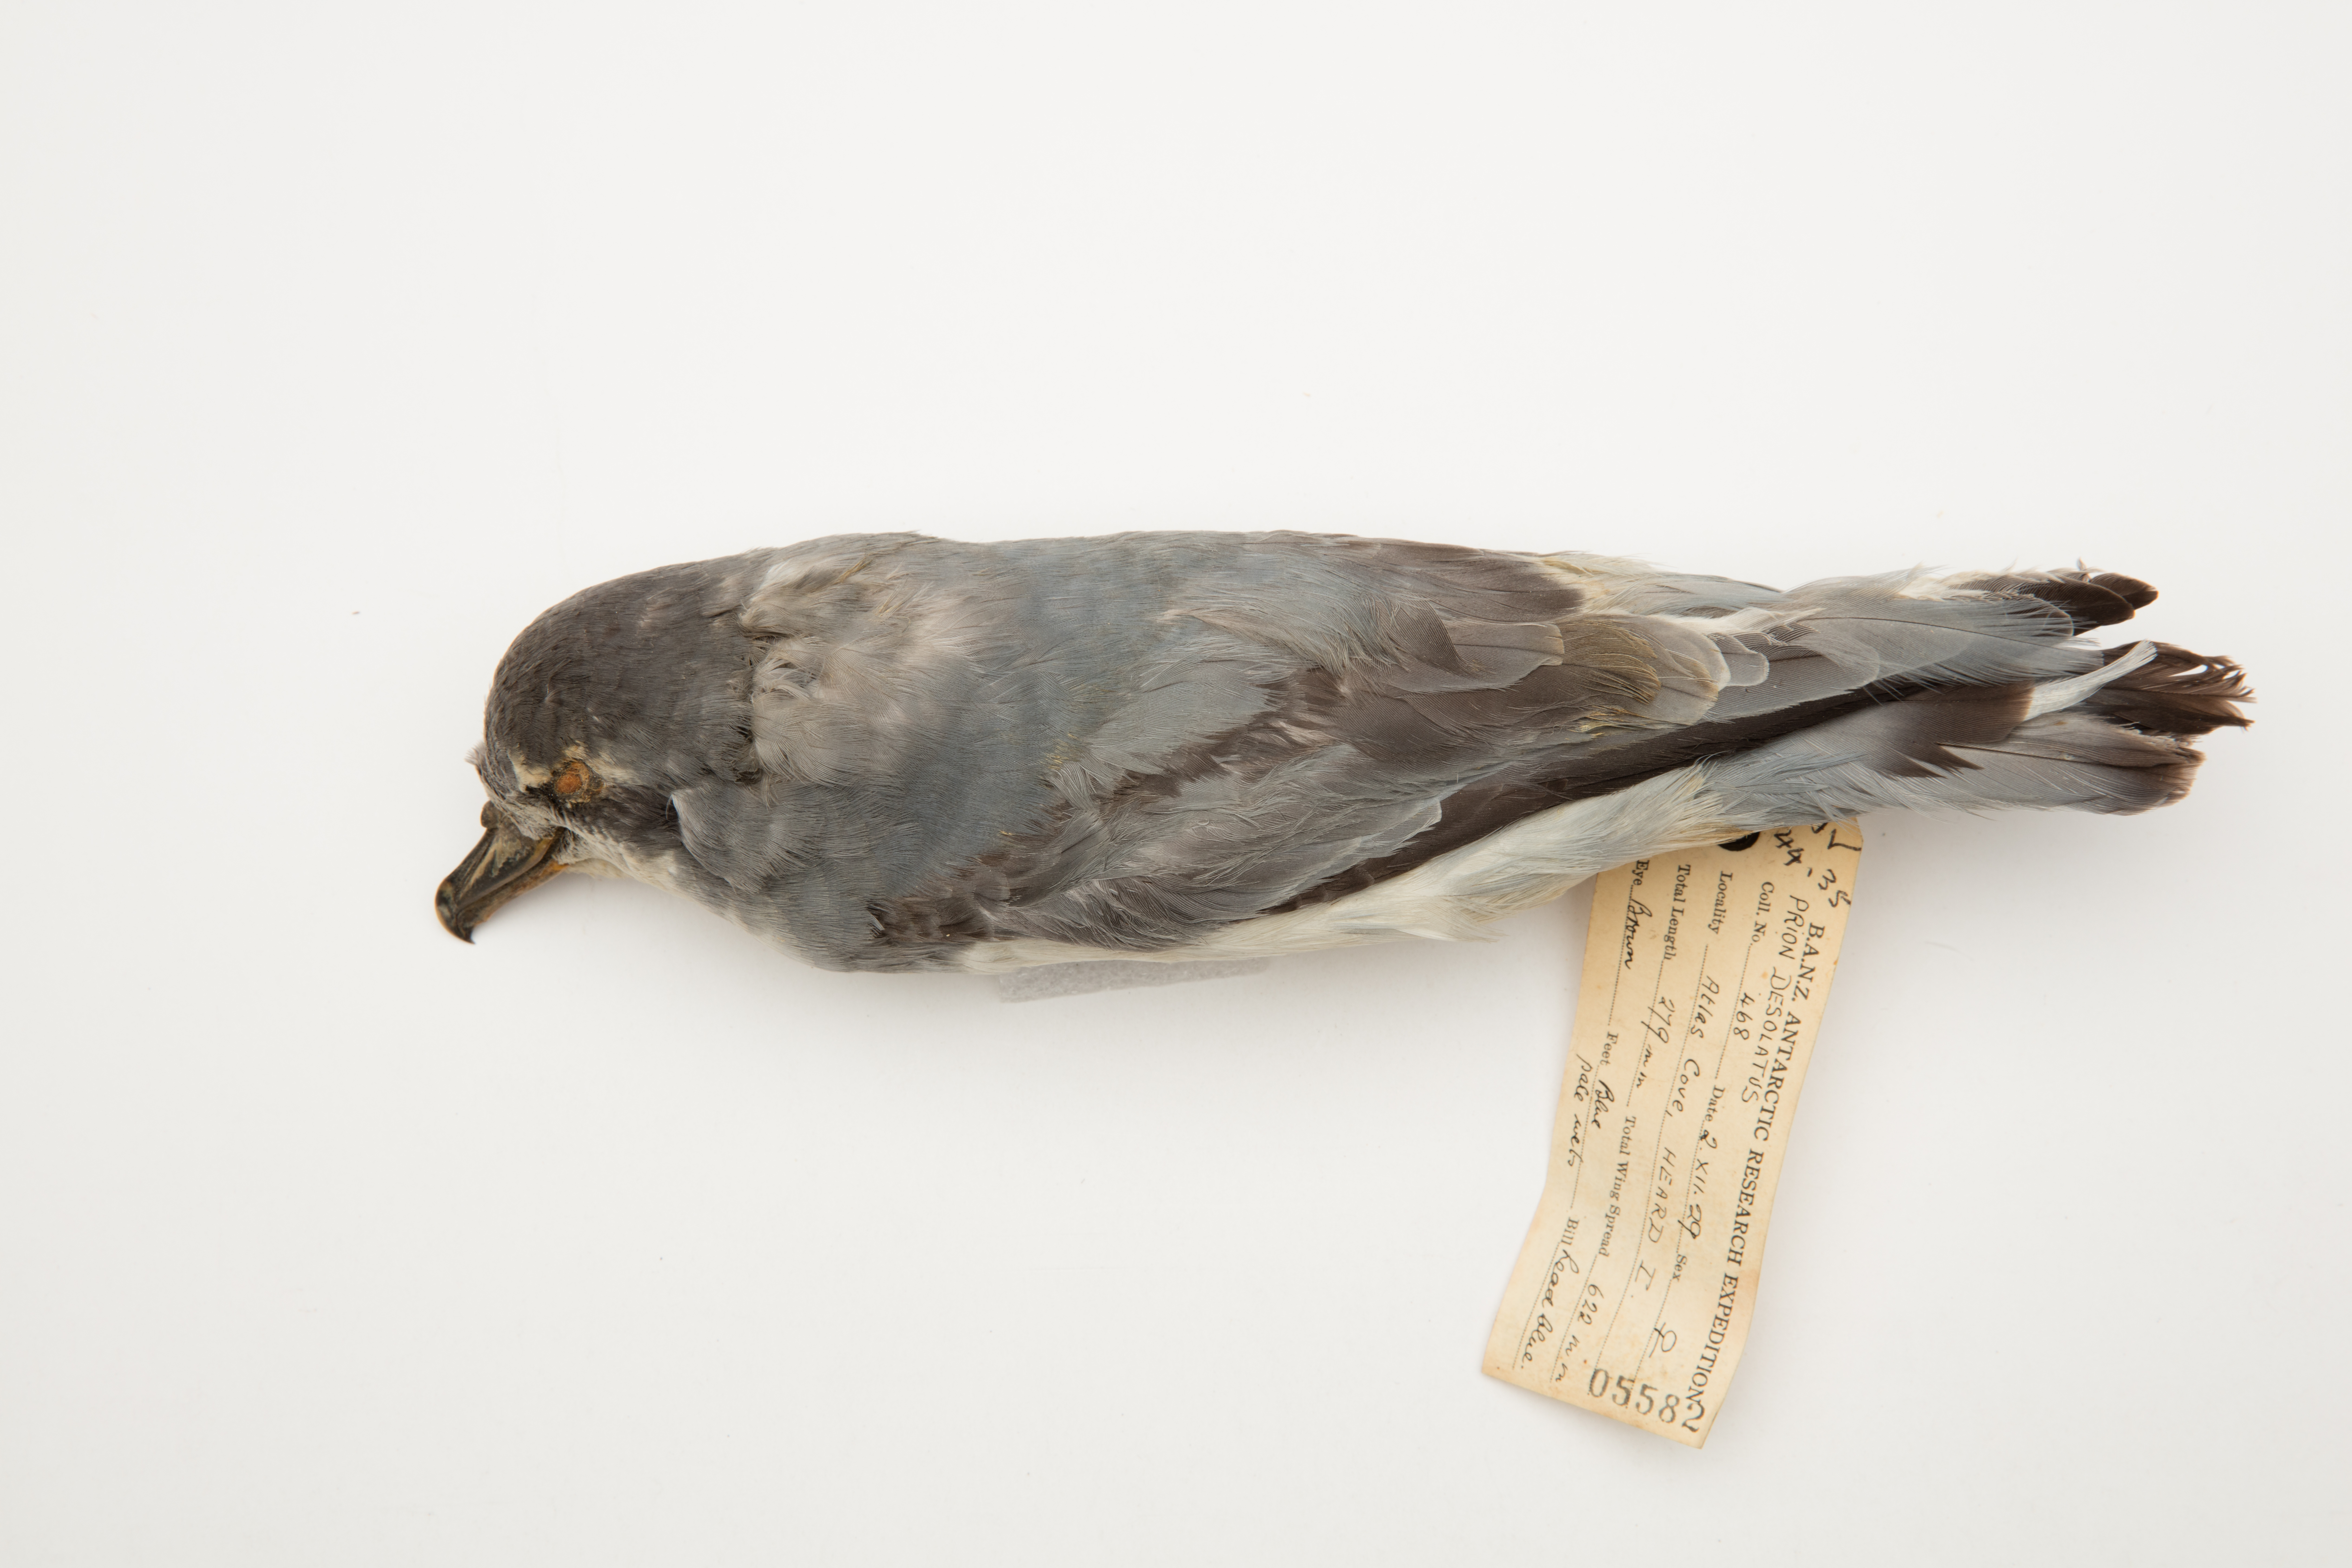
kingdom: Animalia
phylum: Chordata
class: Aves
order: Procellariiformes
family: Procellariidae
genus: Pachyptila
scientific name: Pachyptila desolata
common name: Antarctic prion
